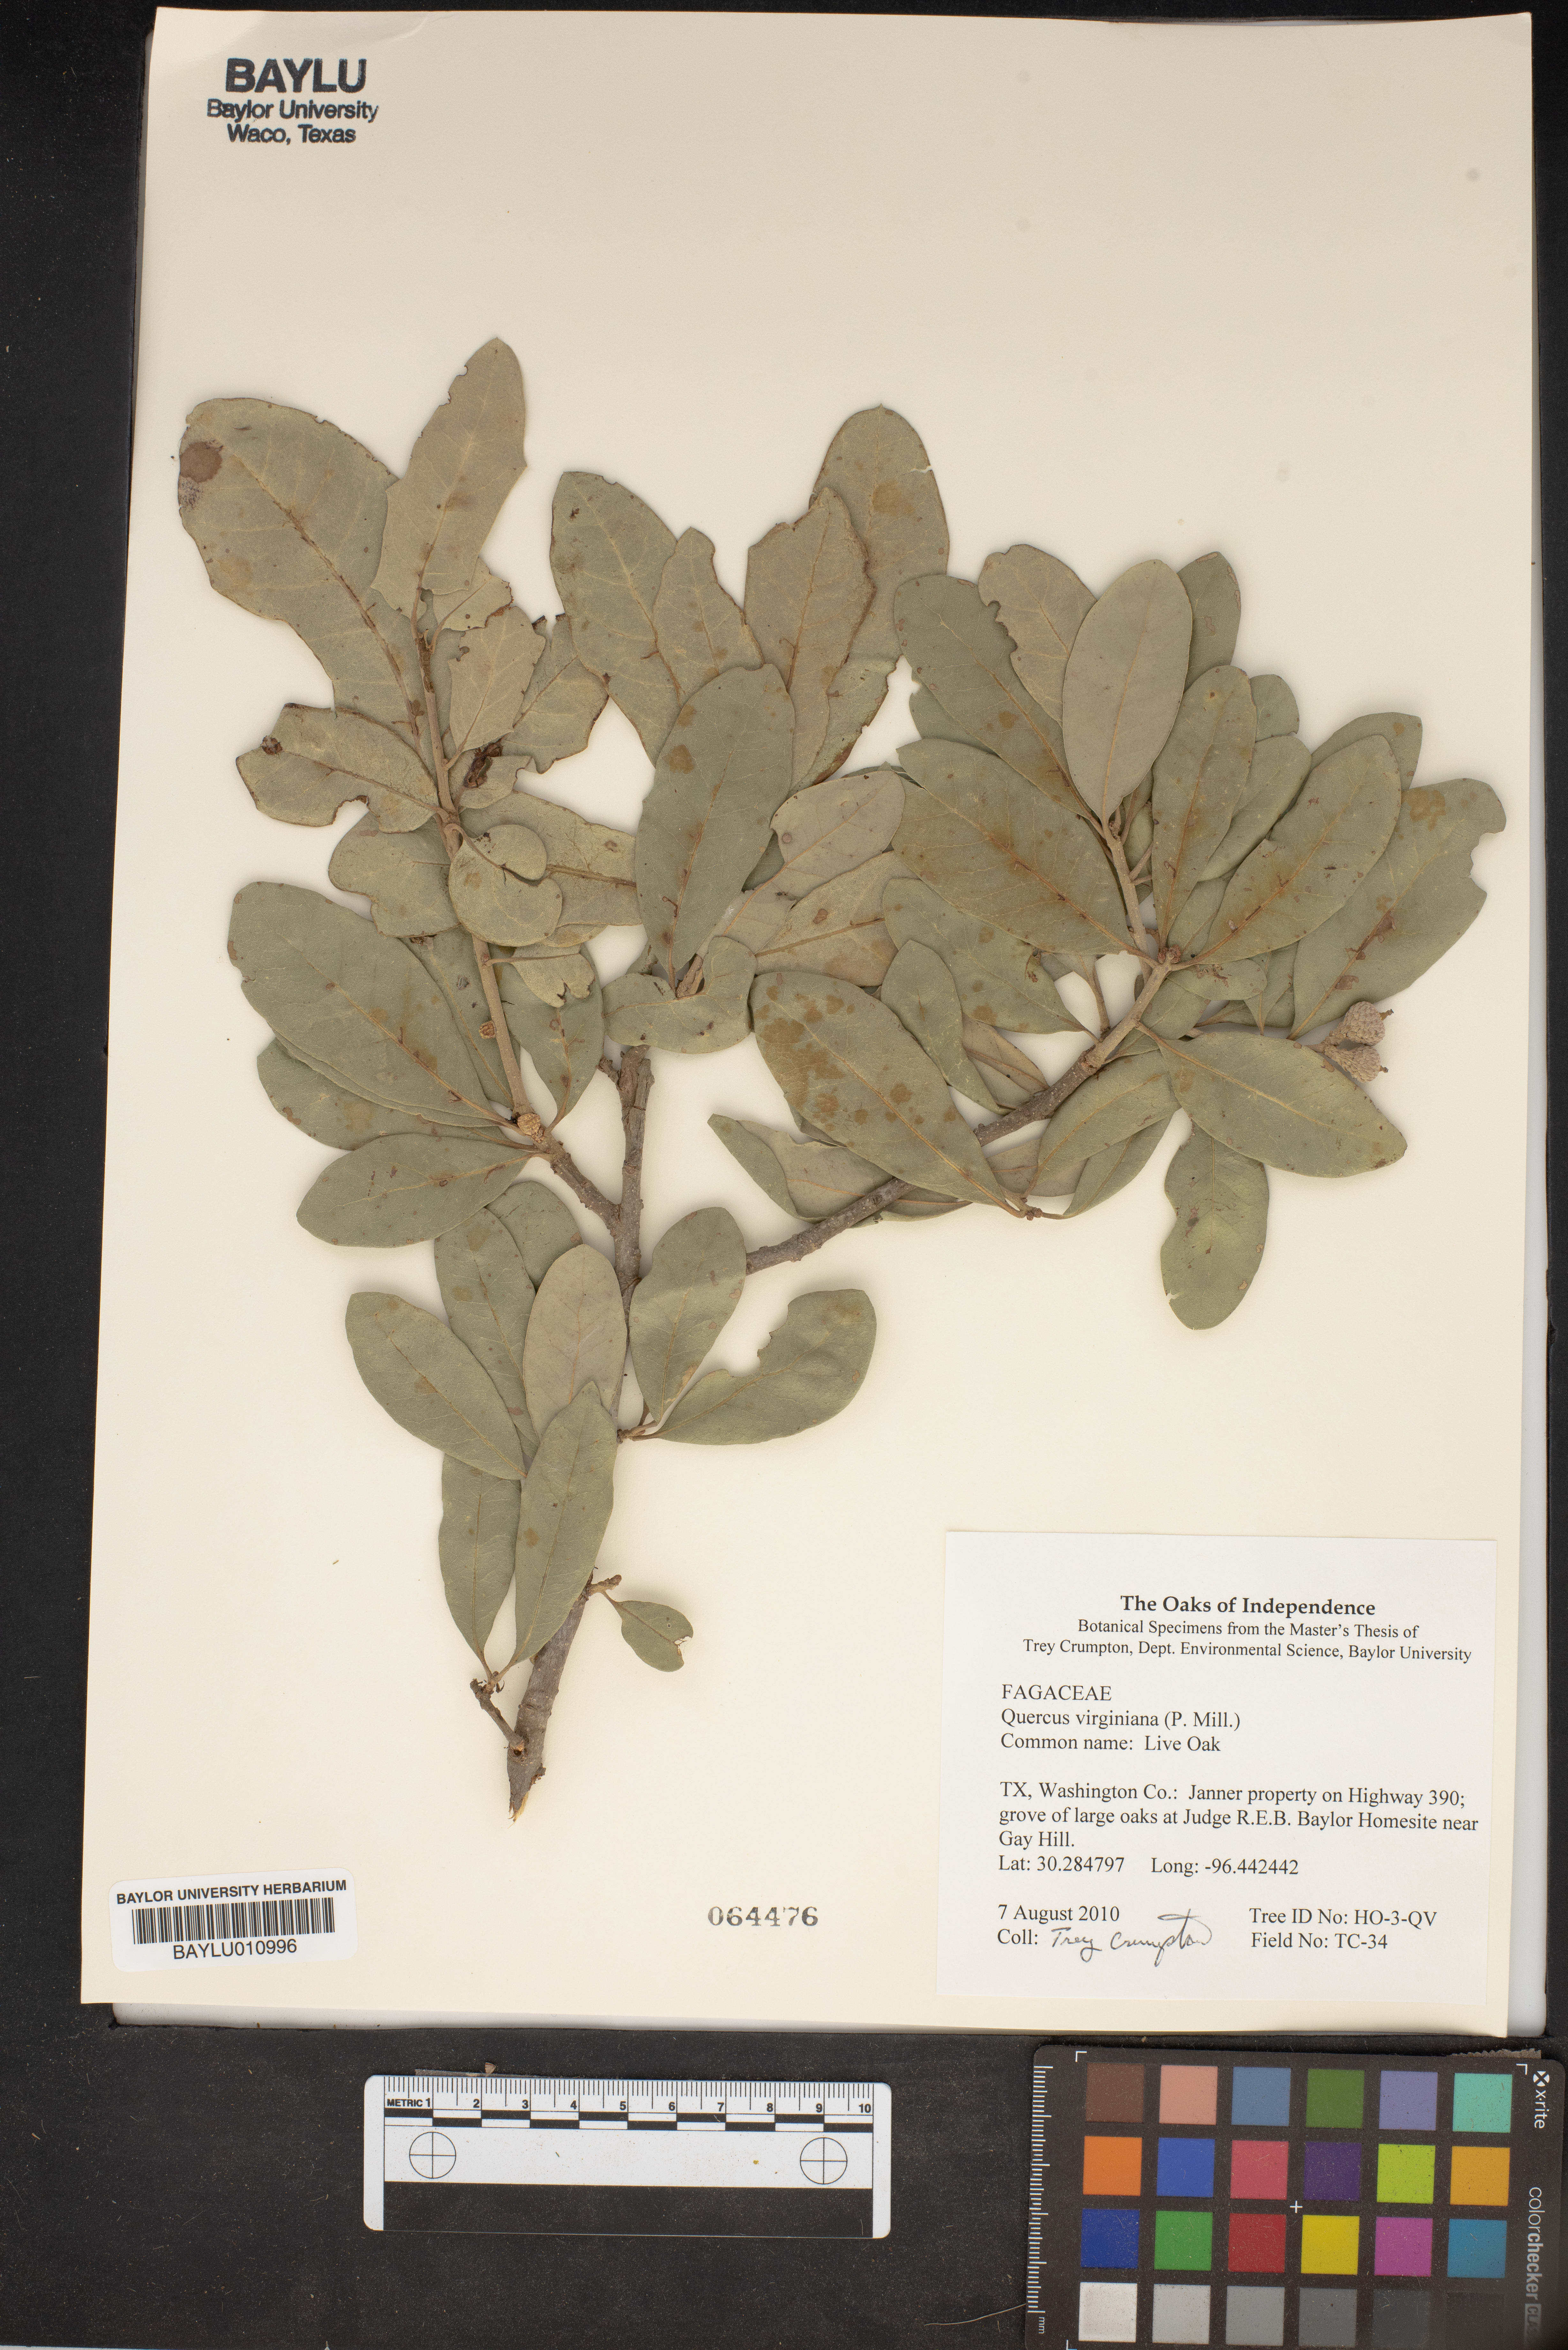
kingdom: Plantae
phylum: Tracheophyta
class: Magnoliopsida
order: Fagales
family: Fagaceae
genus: Quercus
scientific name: Quercus virginiana
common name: Southern live oak
